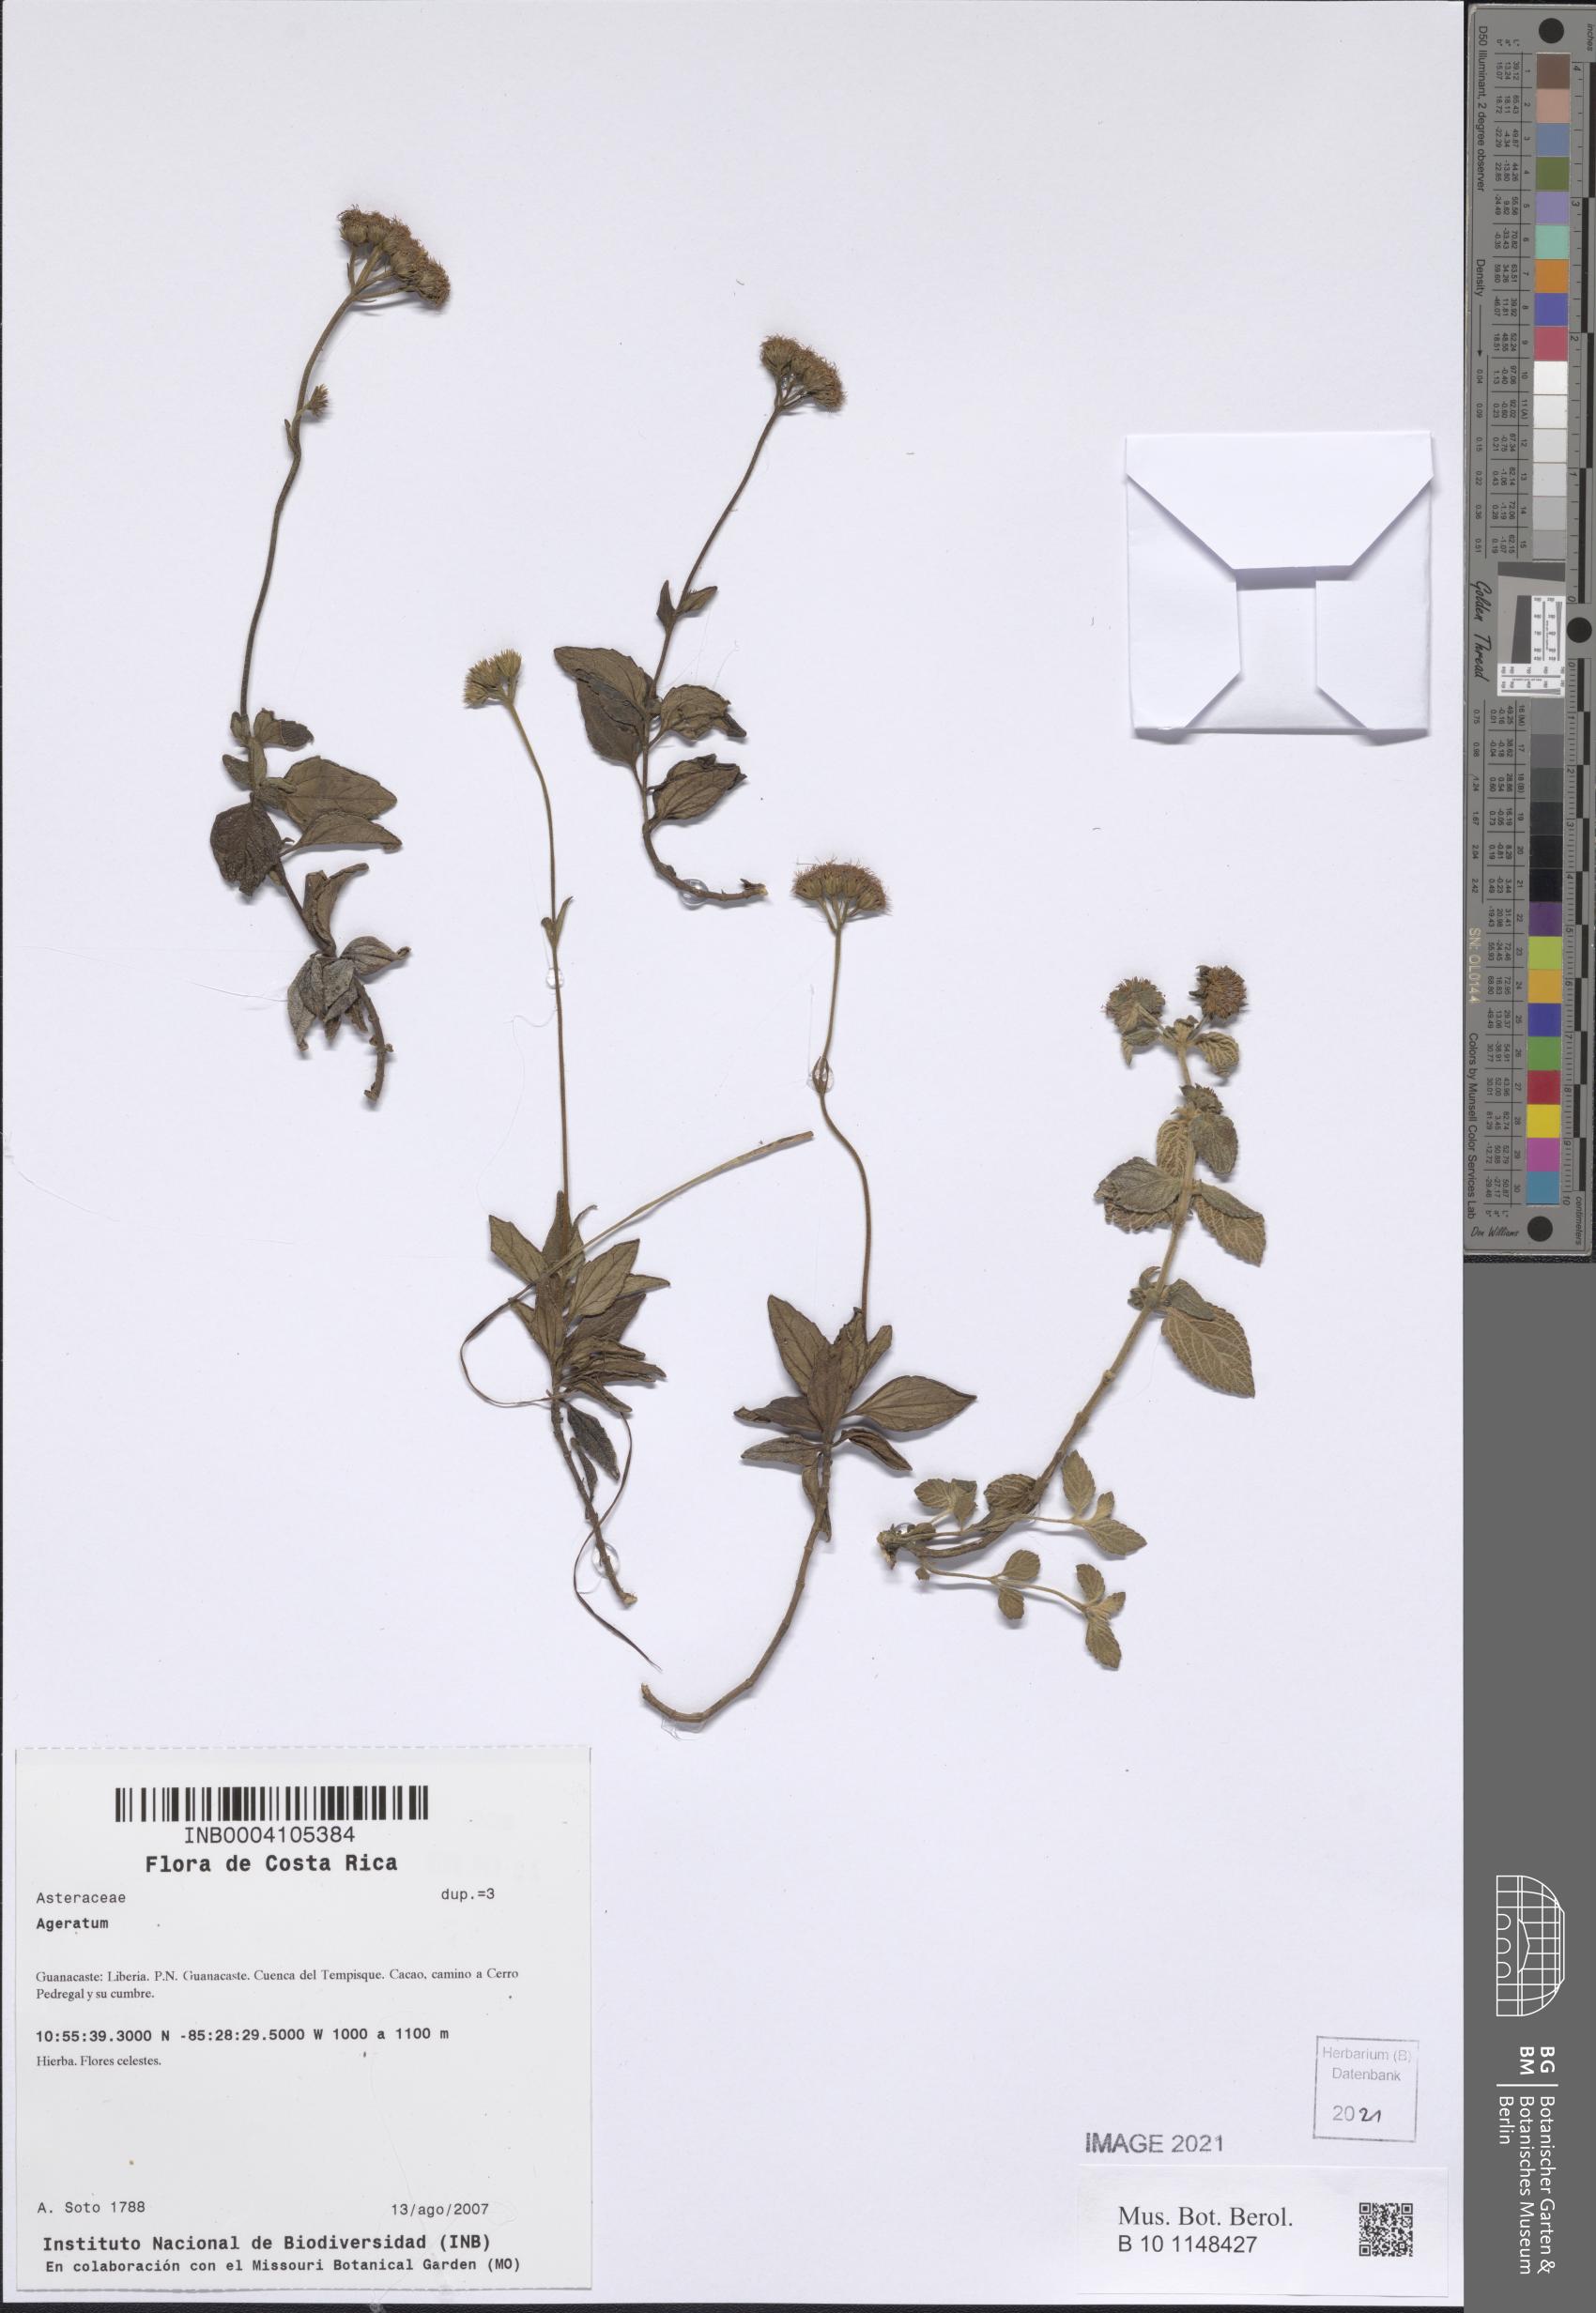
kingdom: Plantae
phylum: Tracheophyta
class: Magnoliopsida
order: Asterales
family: Asteraceae
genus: Ageratum
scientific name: Ageratum
